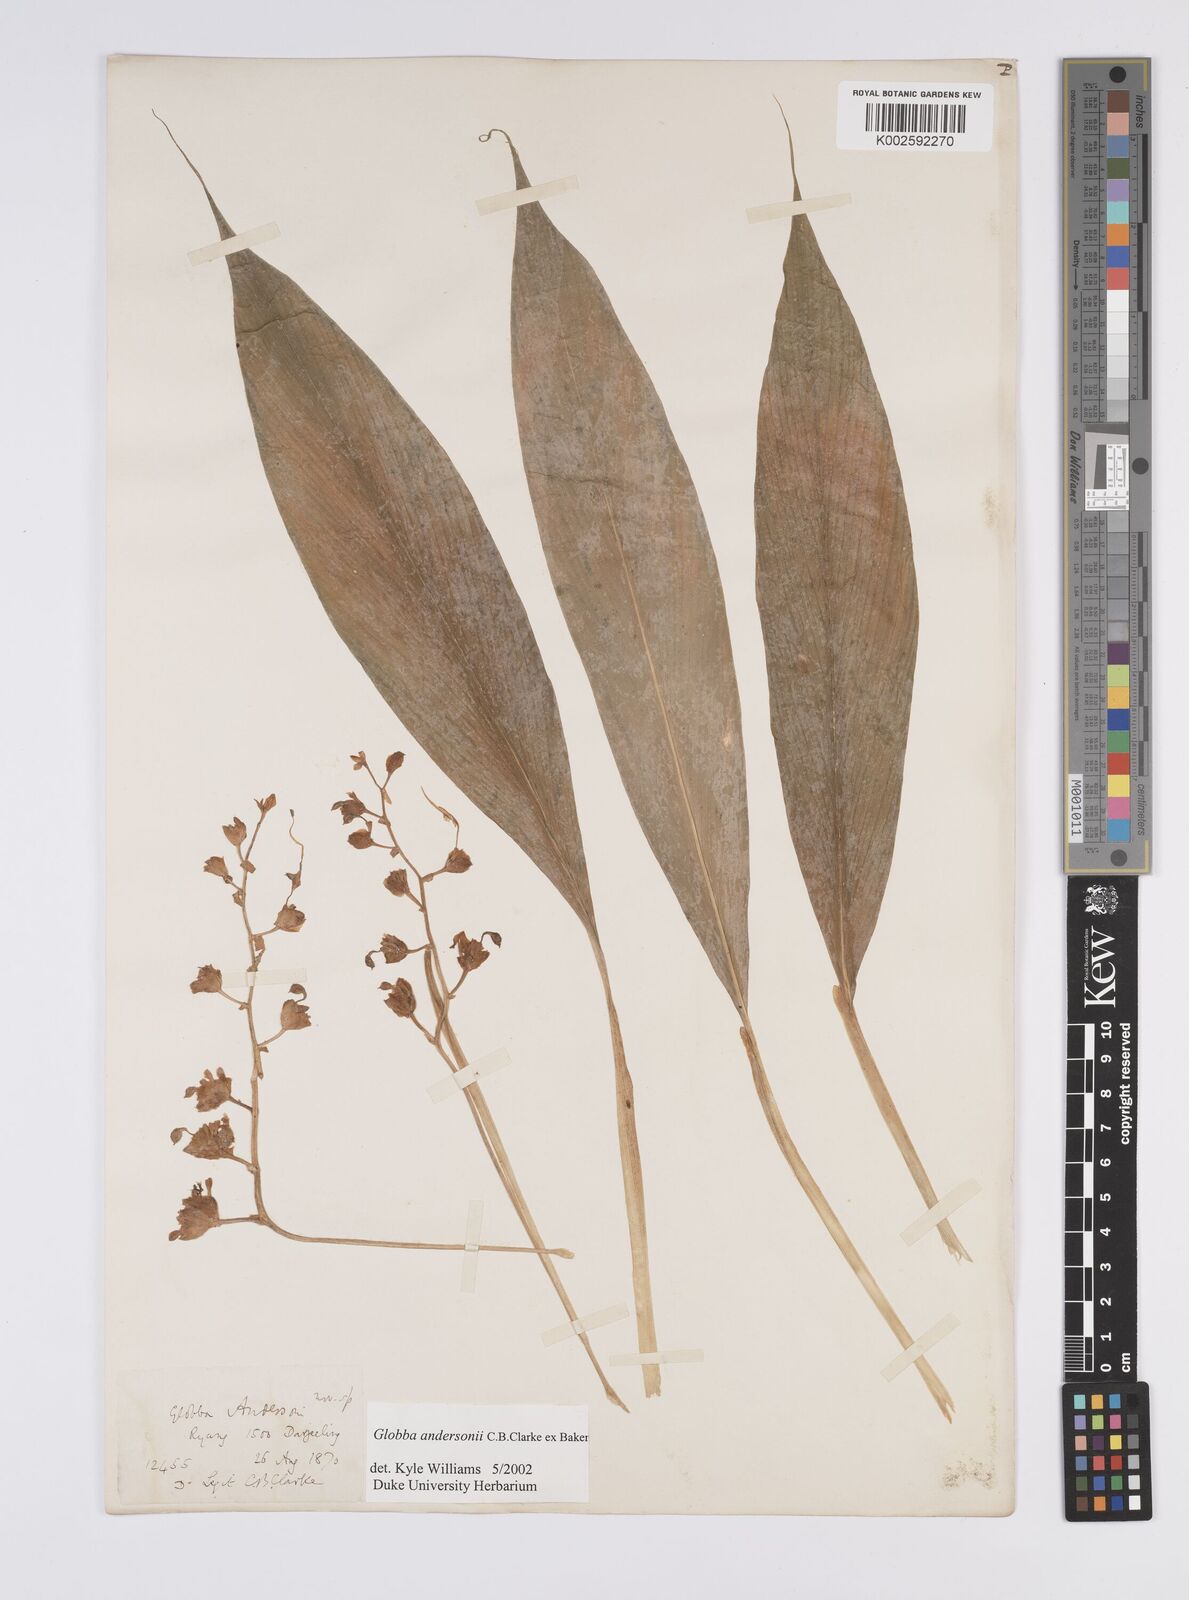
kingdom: Plantae
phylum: Tracheophyta
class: Liliopsida
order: Zingiberales
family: Zingiberaceae
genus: Globba
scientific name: Globba andersonii
